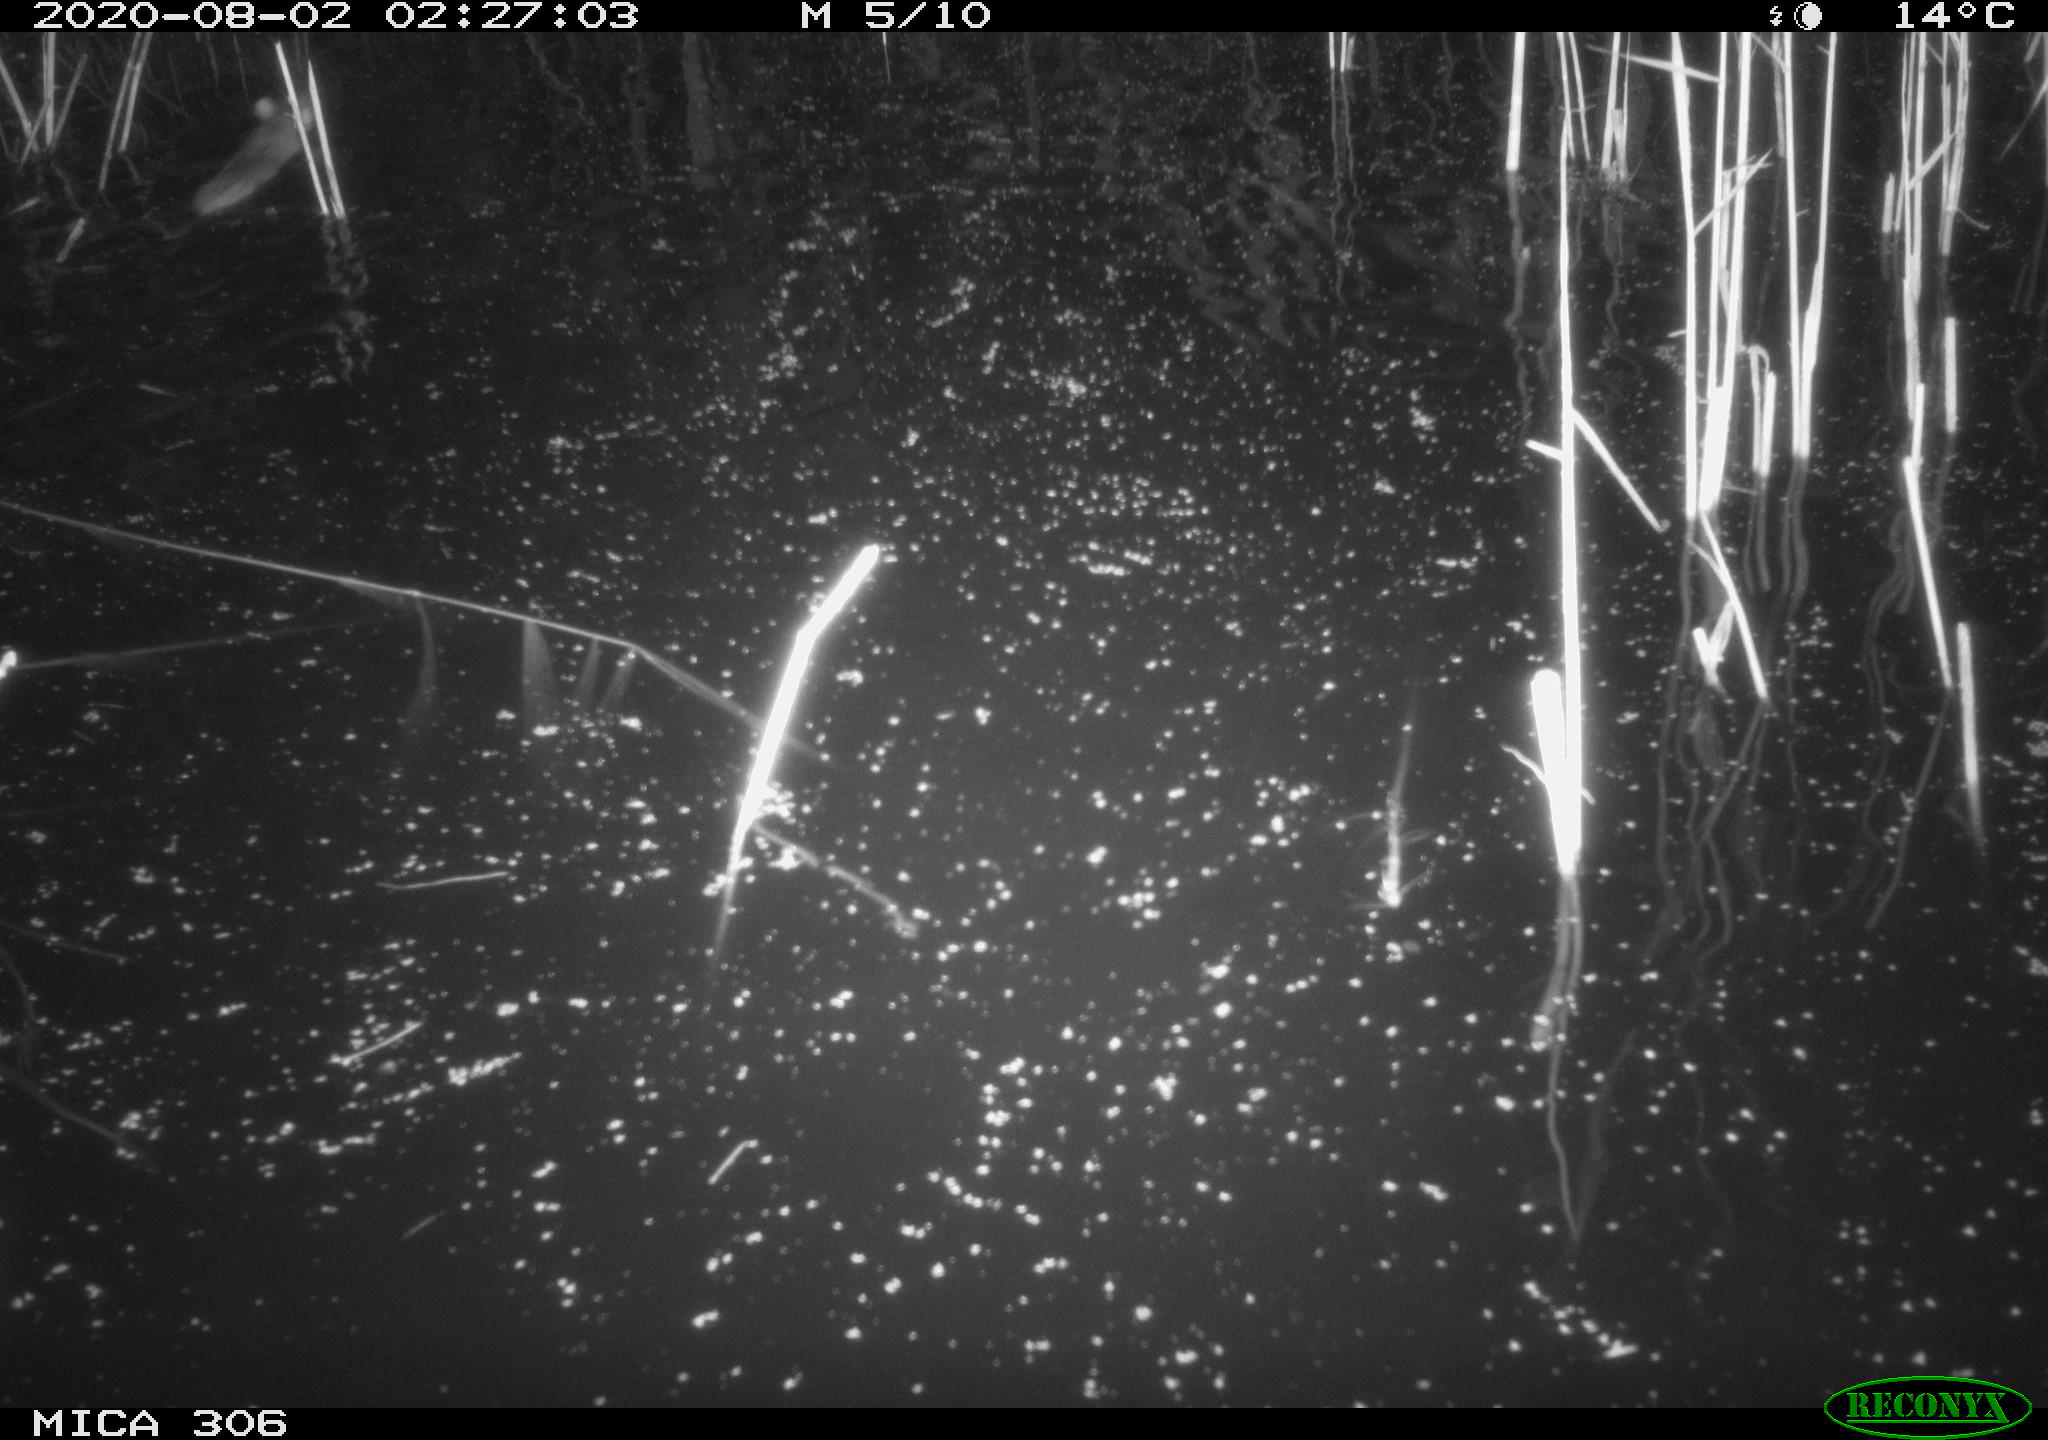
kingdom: Animalia
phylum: Chordata
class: Mammalia
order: Rodentia
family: Muridae
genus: Rattus
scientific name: Rattus norvegicus
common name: Brown rat
